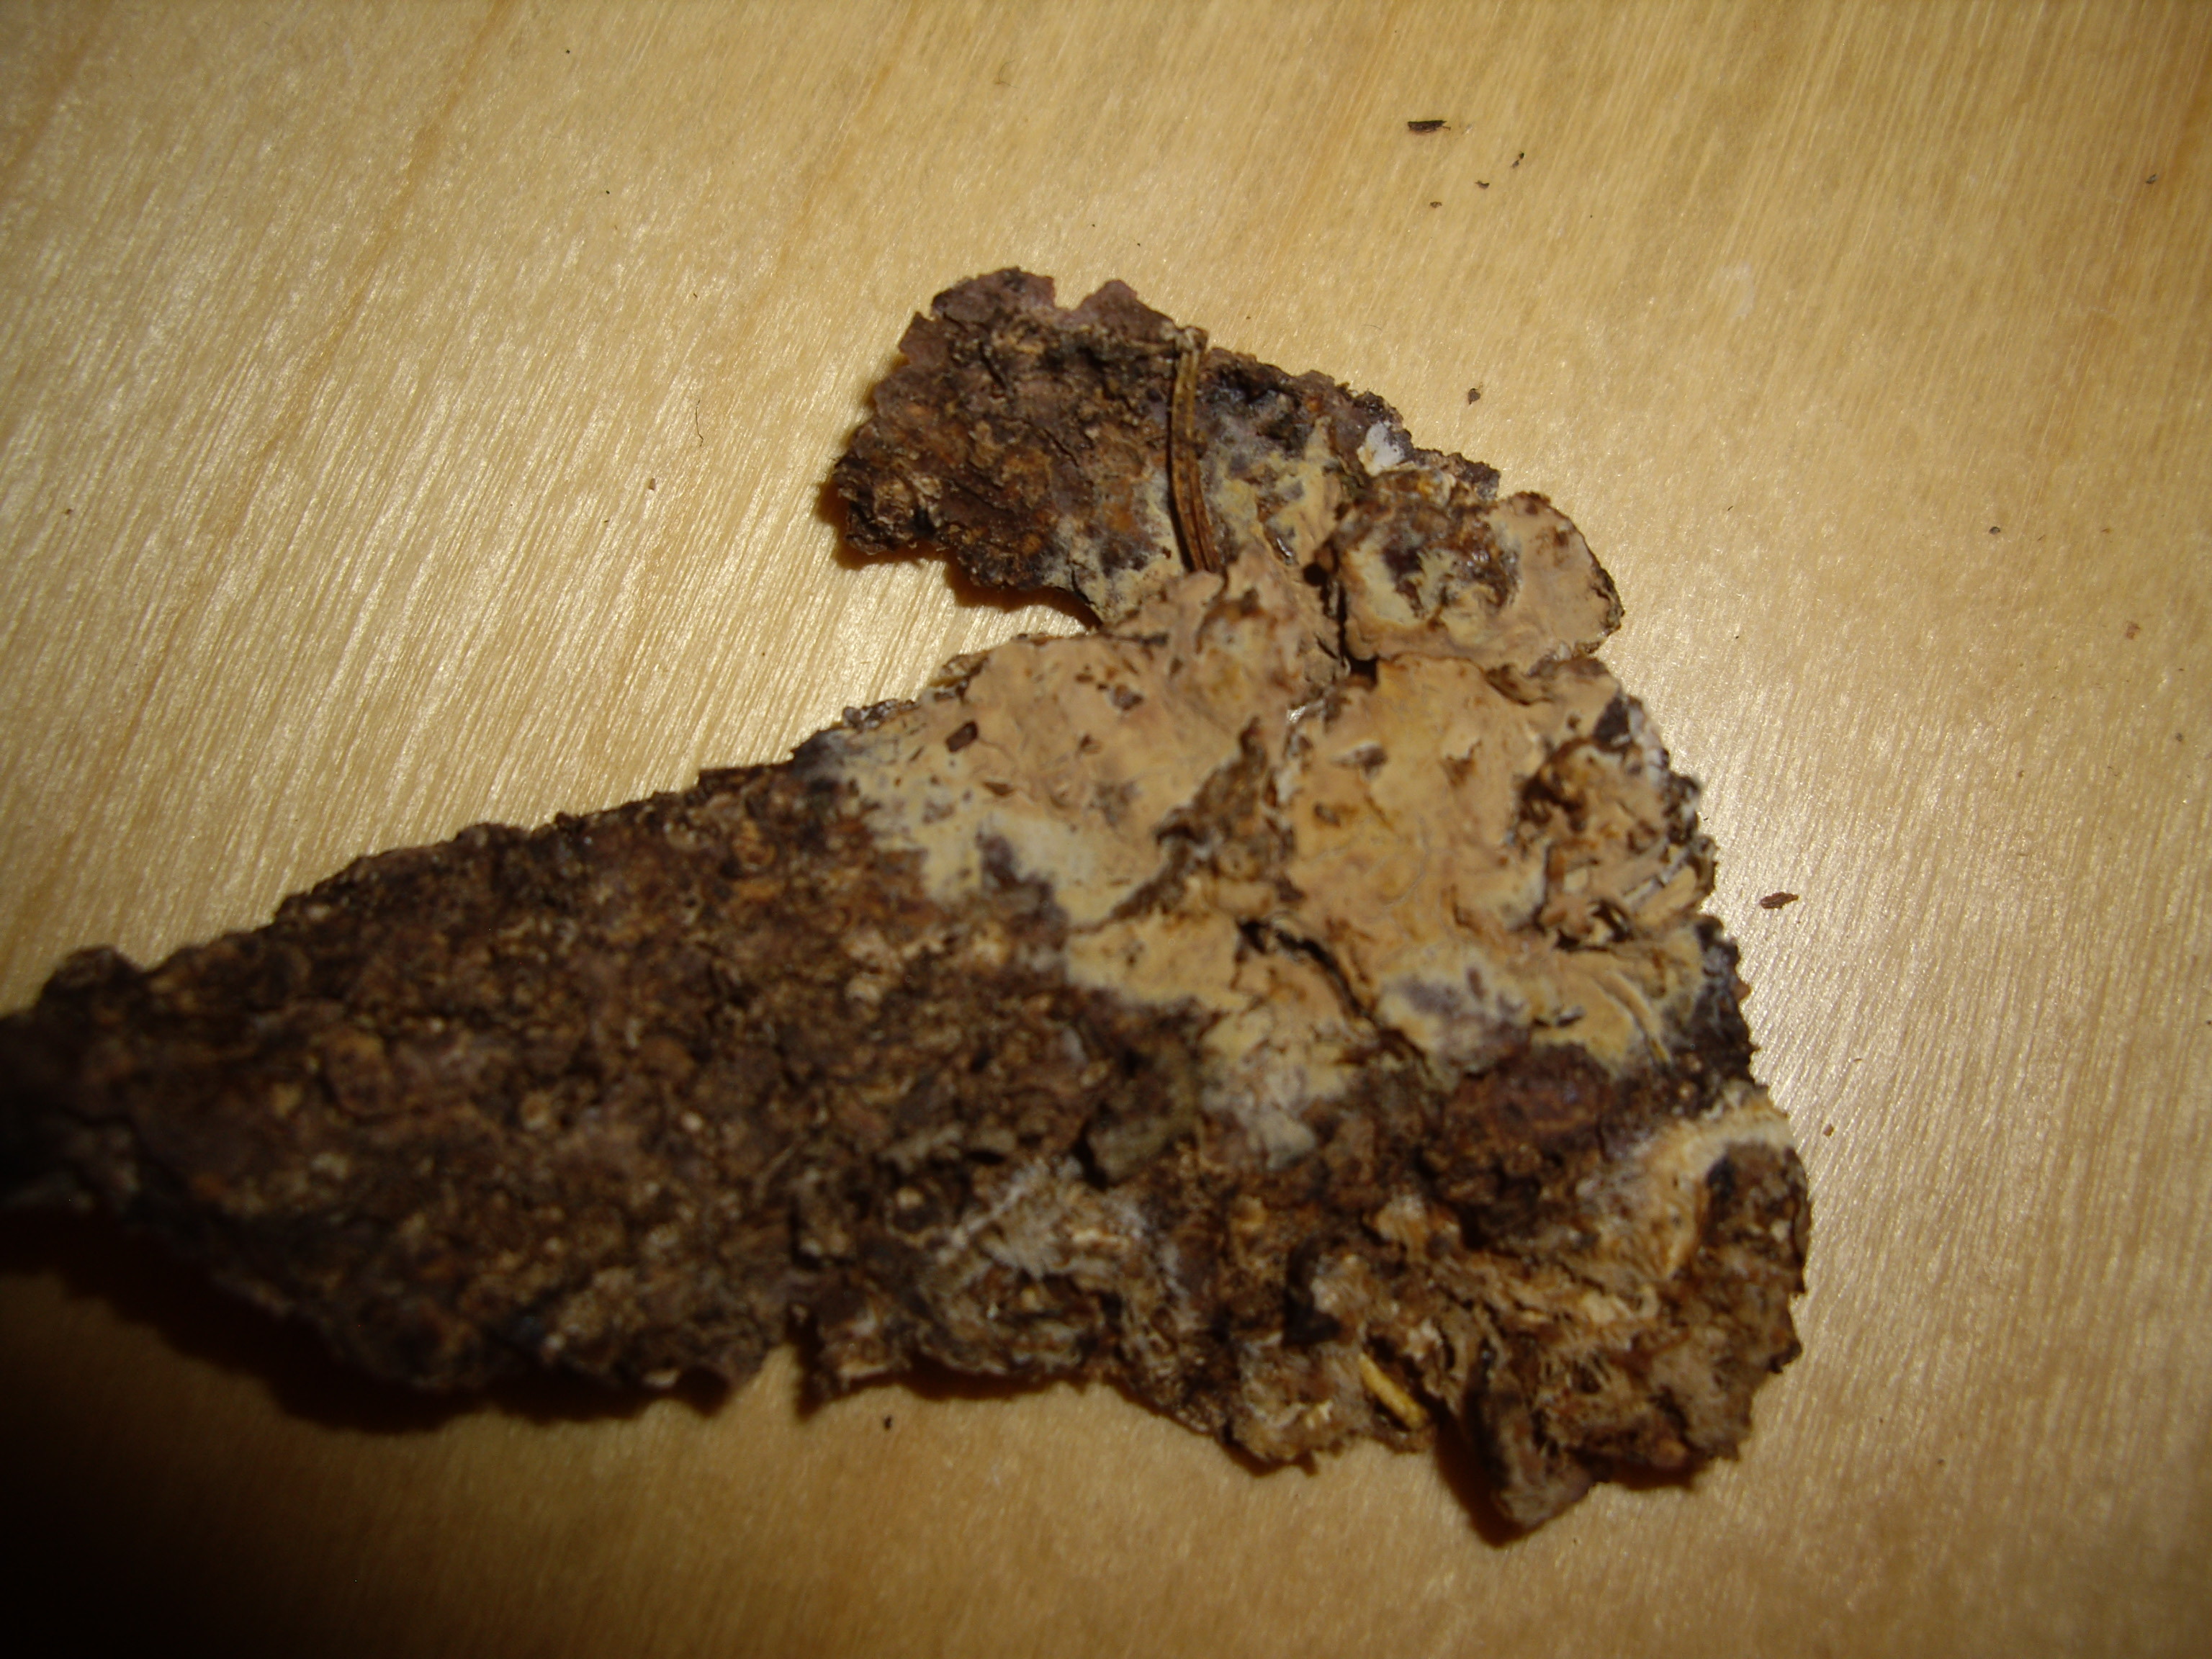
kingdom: Fungi
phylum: Basidiomycota
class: Agaricomycetes
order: Polyporales
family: Meruliaceae
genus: Phlebia
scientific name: Phlebia lilascens
